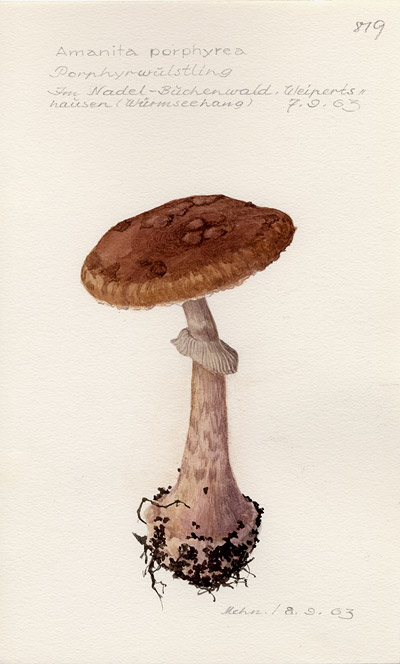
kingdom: Fungi
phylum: Basidiomycota
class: Agaricomycetes
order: Agaricales
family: Amanitaceae
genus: Amanita
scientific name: Amanita porphyria
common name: Grey veiled amanita
